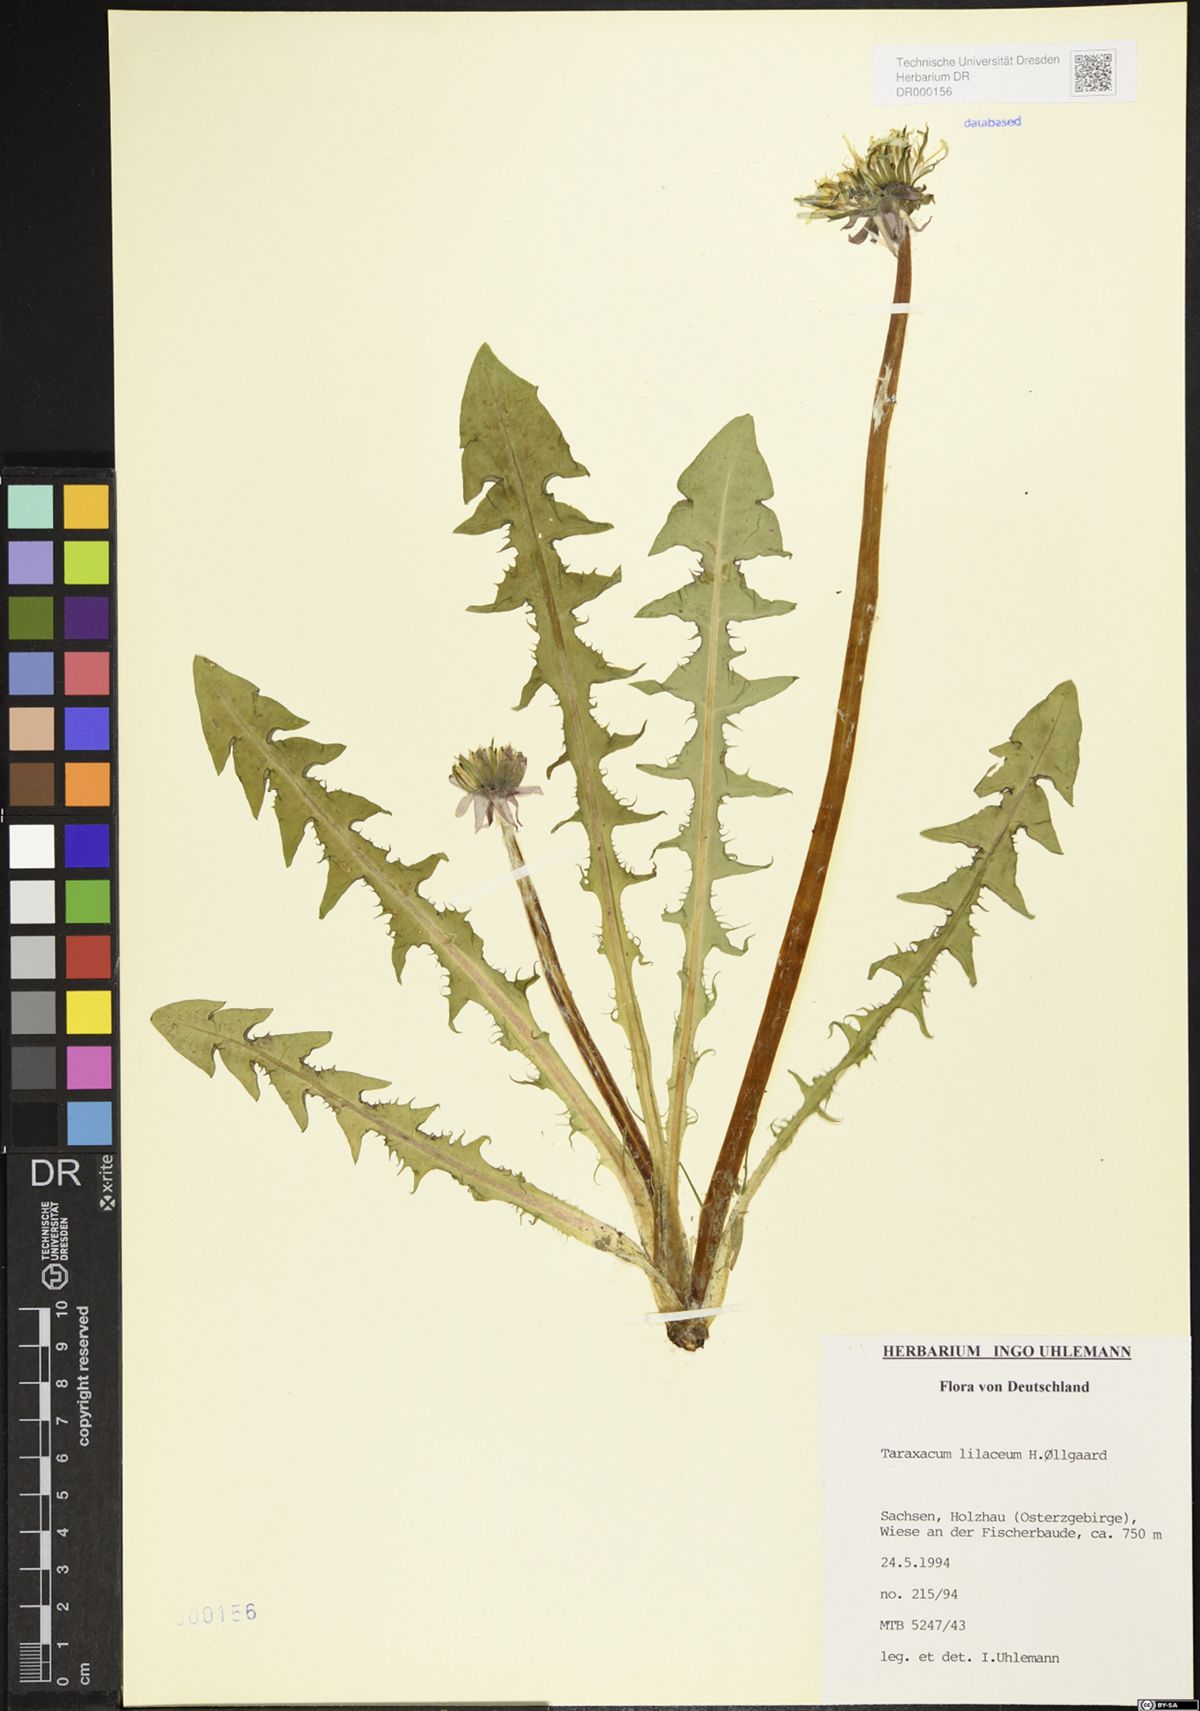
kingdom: Plantae
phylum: Tracheophyta
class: Magnoliopsida
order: Asterales
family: Asteraceae
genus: Taraxacum
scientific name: Taraxacum floccosum
